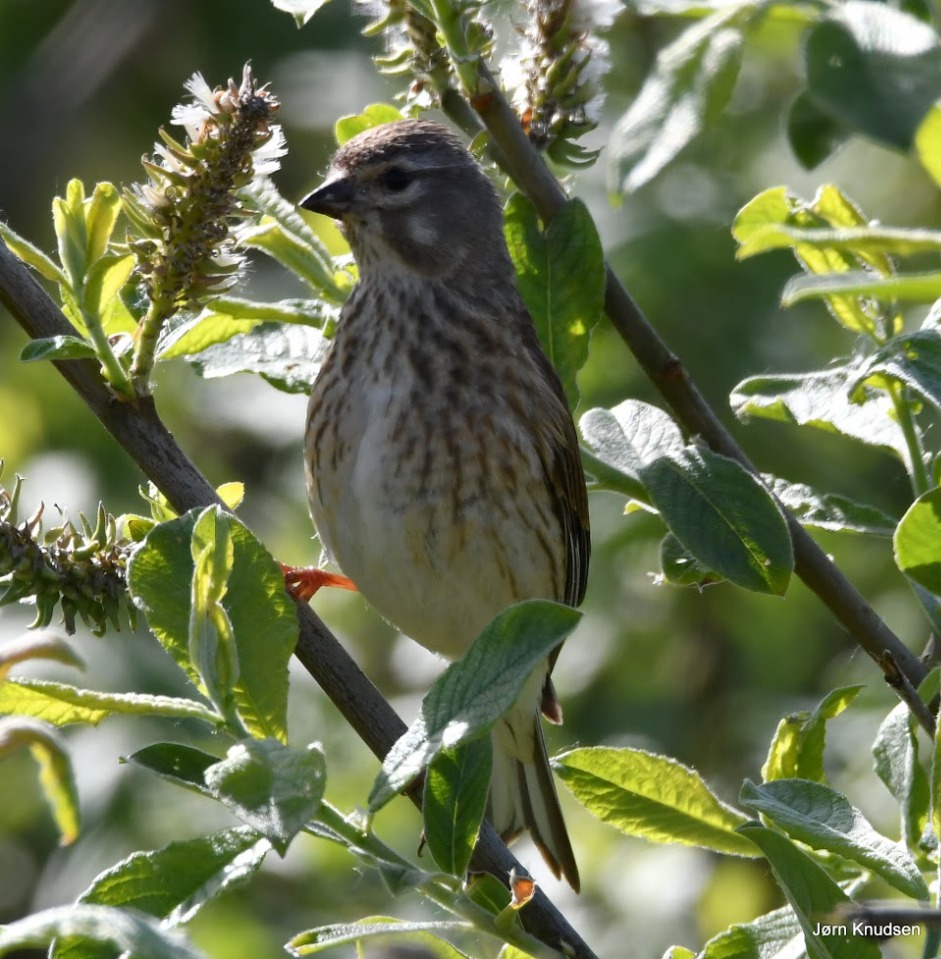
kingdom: Animalia
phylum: Chordata
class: Aves
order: Passeriformes
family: Fringillidae
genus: Linaria
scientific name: Linaria cannabina
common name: Tornirisk
